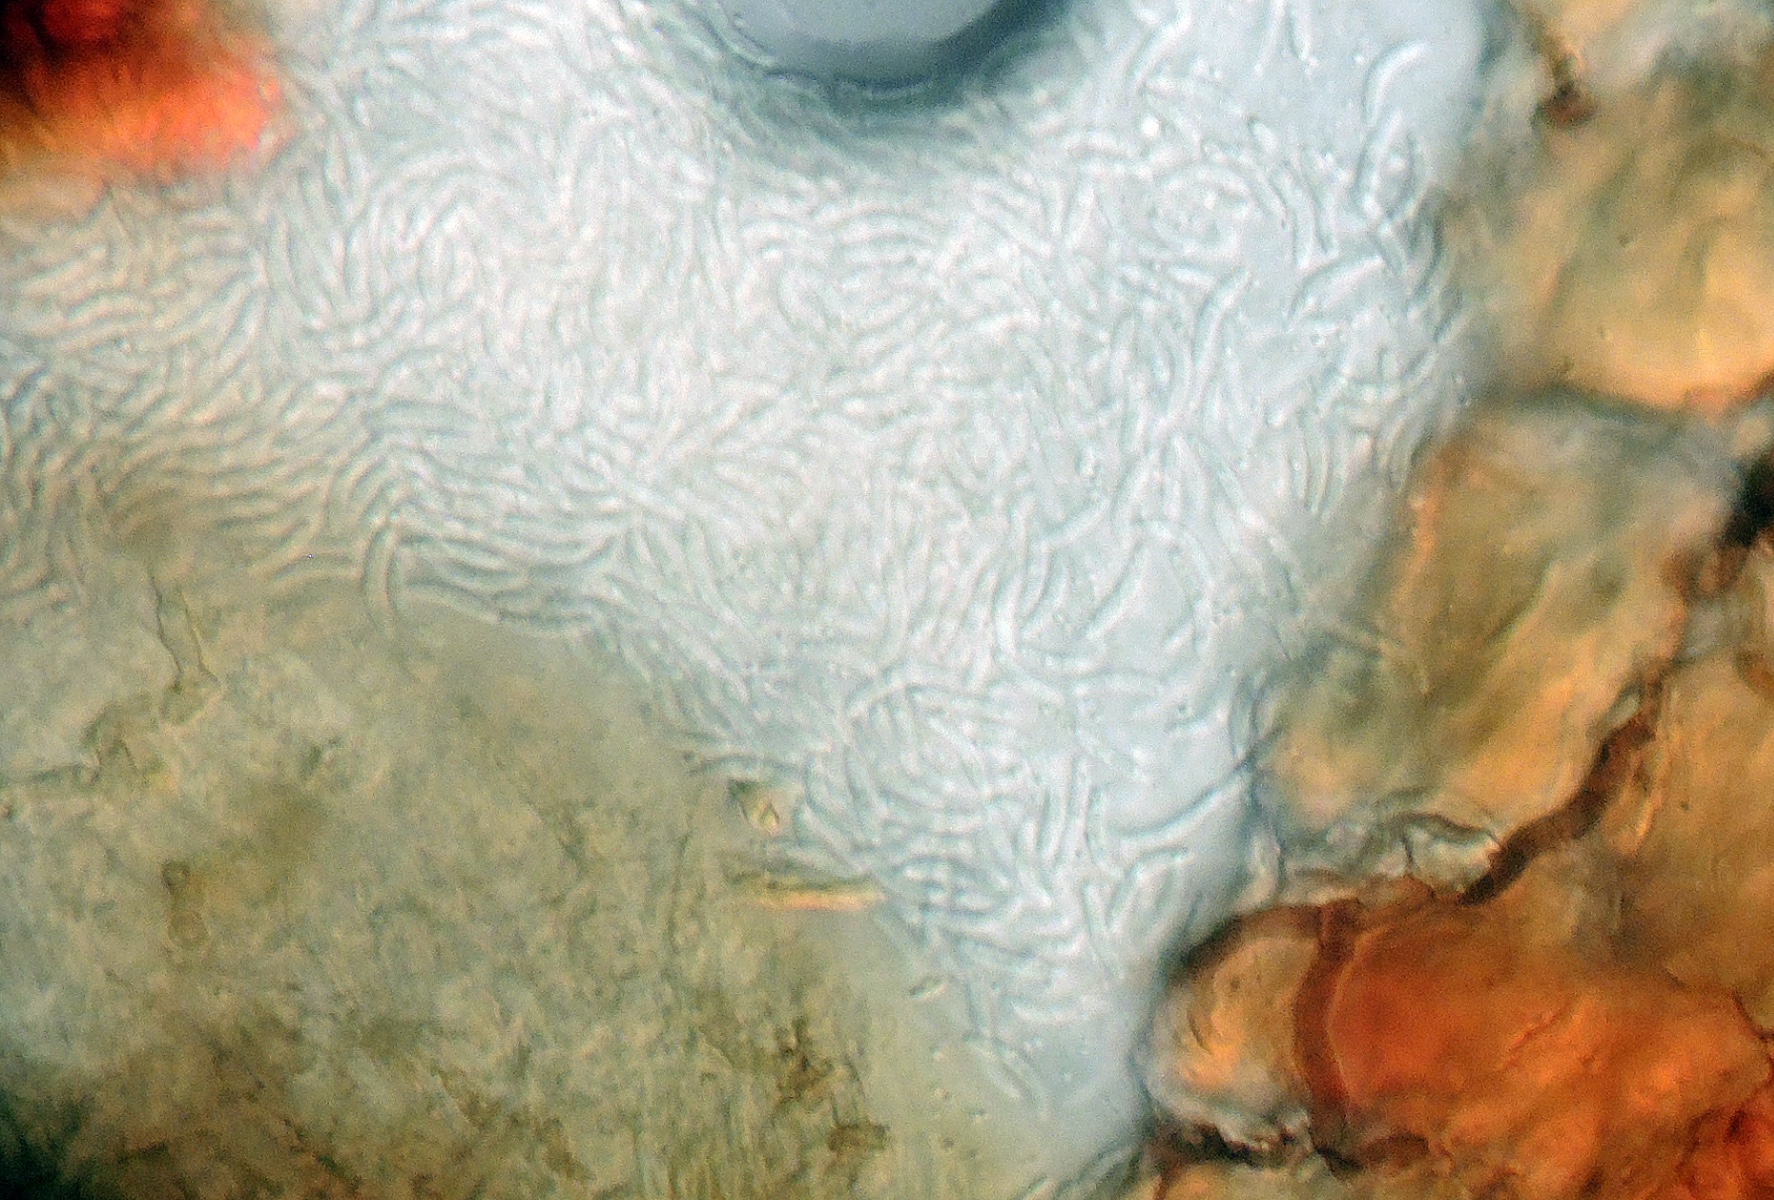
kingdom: Fungi
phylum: Ascomycota
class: Leotiomycetes
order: Helotiales
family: Godroniaceae
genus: Godronia
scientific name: Godronia cassandrae
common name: lyng-urneskive
